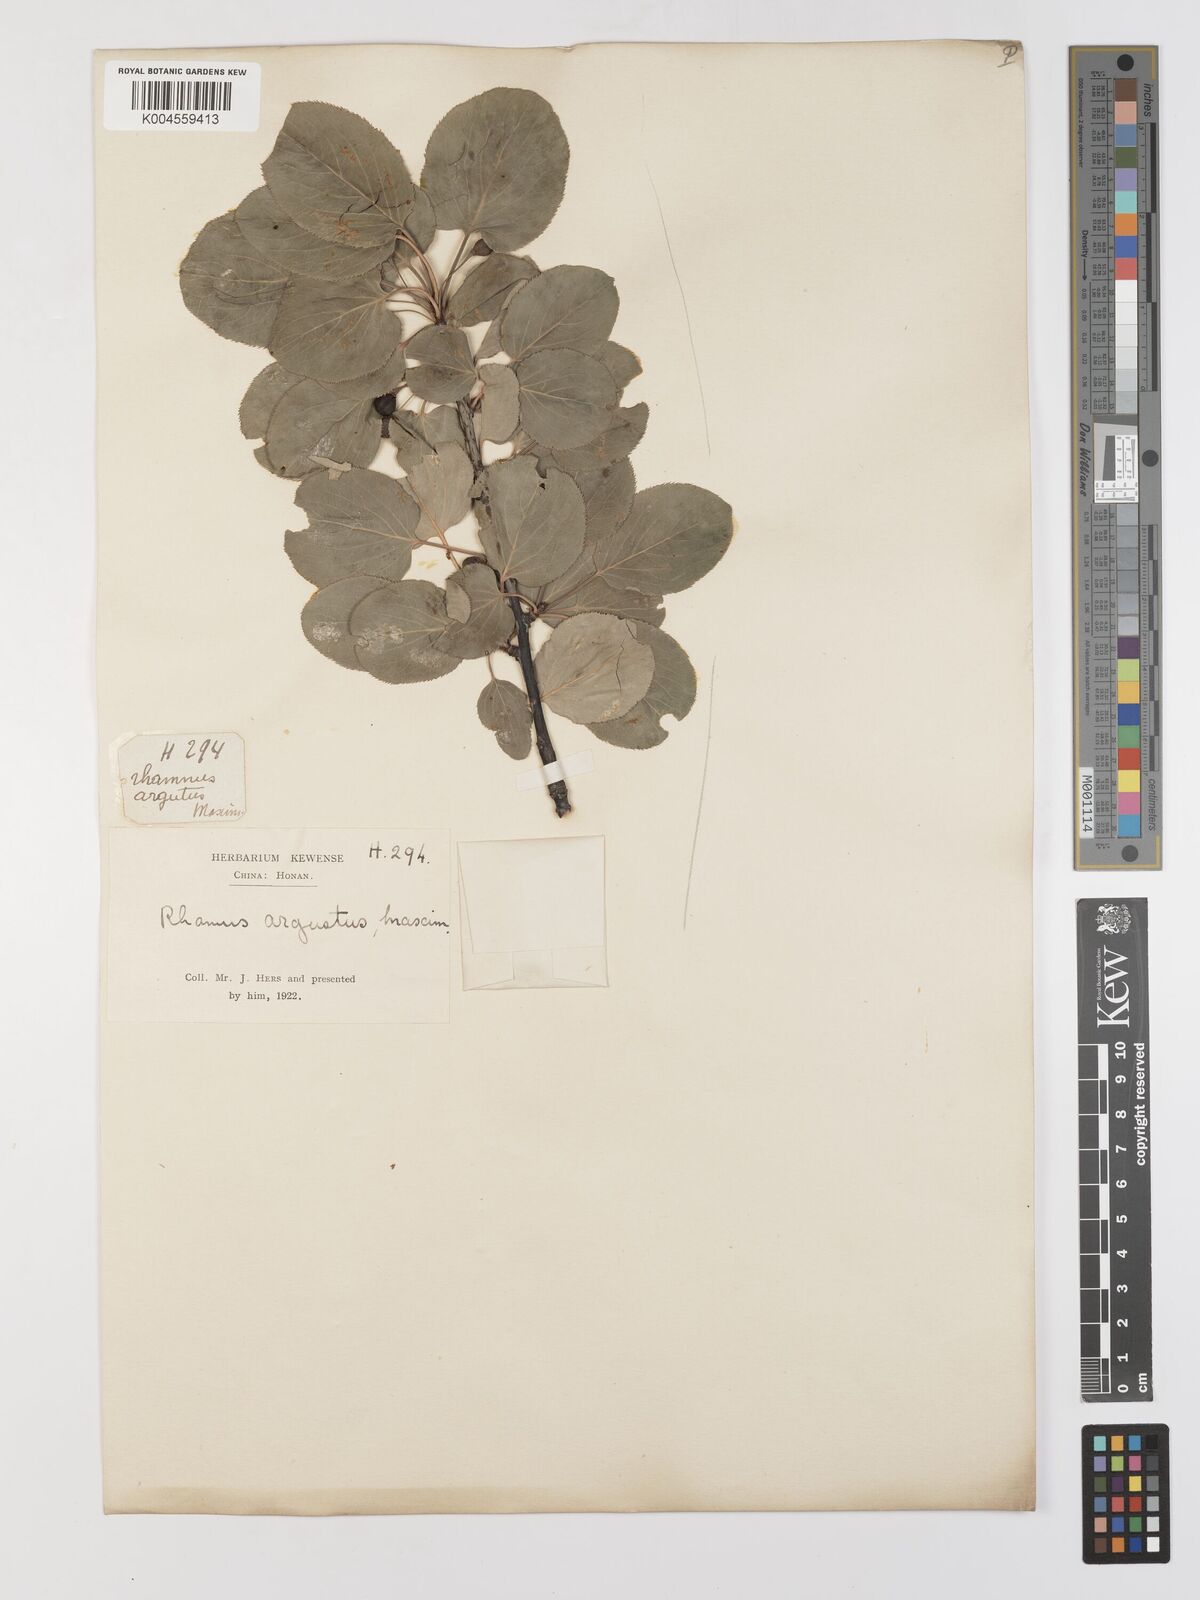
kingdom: Plantae
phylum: Tracheophyta
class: Magnoliopsida
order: Rosales
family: Rhamnaceae
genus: Rhamnus
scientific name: Rhamnus arguta
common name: Sharp-tooth buckthorn
